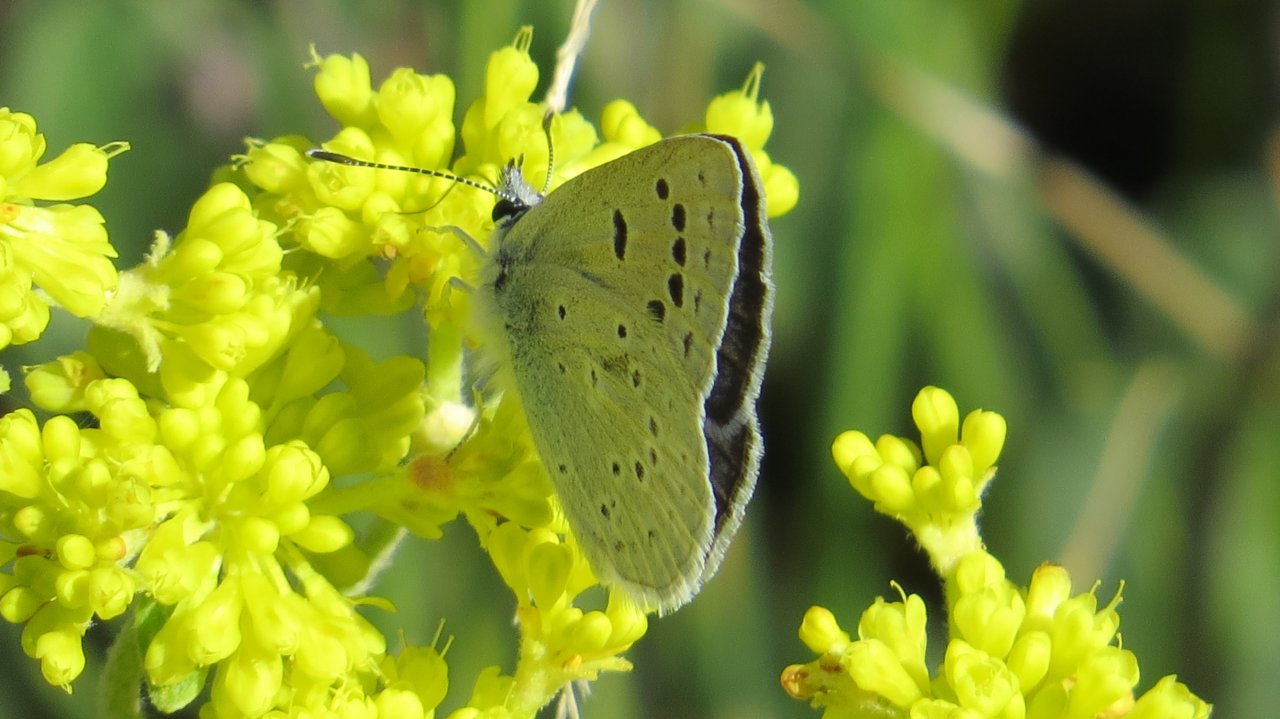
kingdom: Animalia
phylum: Arthropoda
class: Insecta
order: Lepidoptera
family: Lycaenidae
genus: Icaricia
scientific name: Icaricia icarioides
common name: Boisduval's Blue
